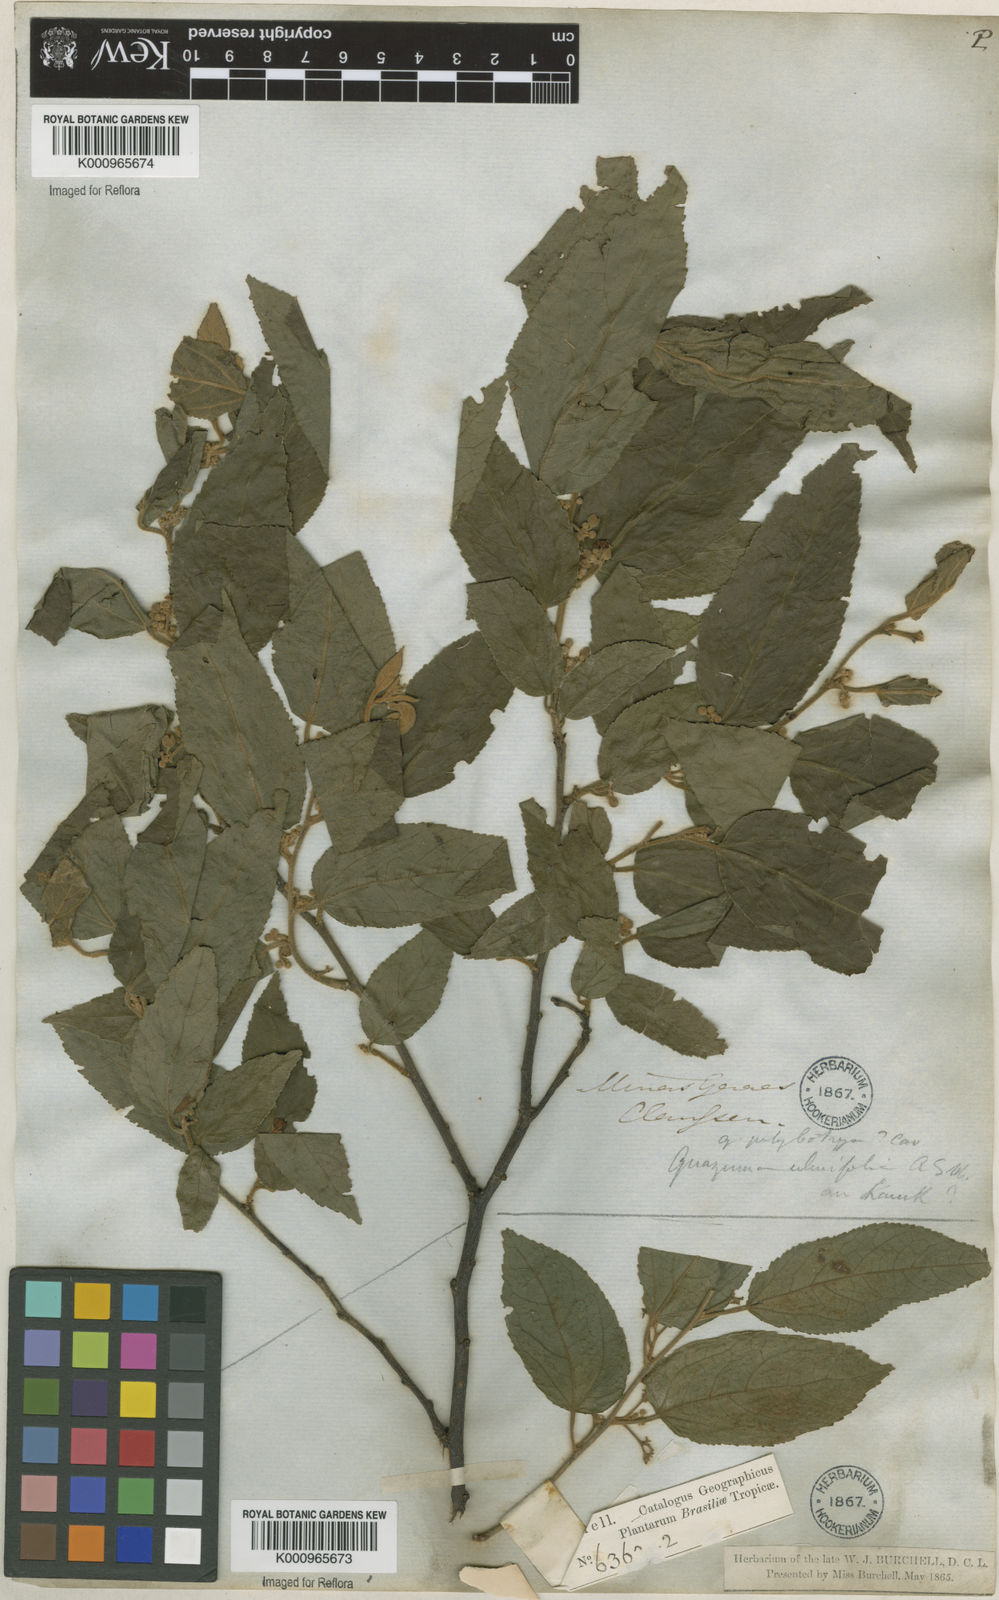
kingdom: Plantae
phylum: Tracheophyta
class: Magnoliopsida
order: Malvales
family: Malvaceae
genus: Guazuma
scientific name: Guazuma ulmifolia
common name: Bastard-cedar
